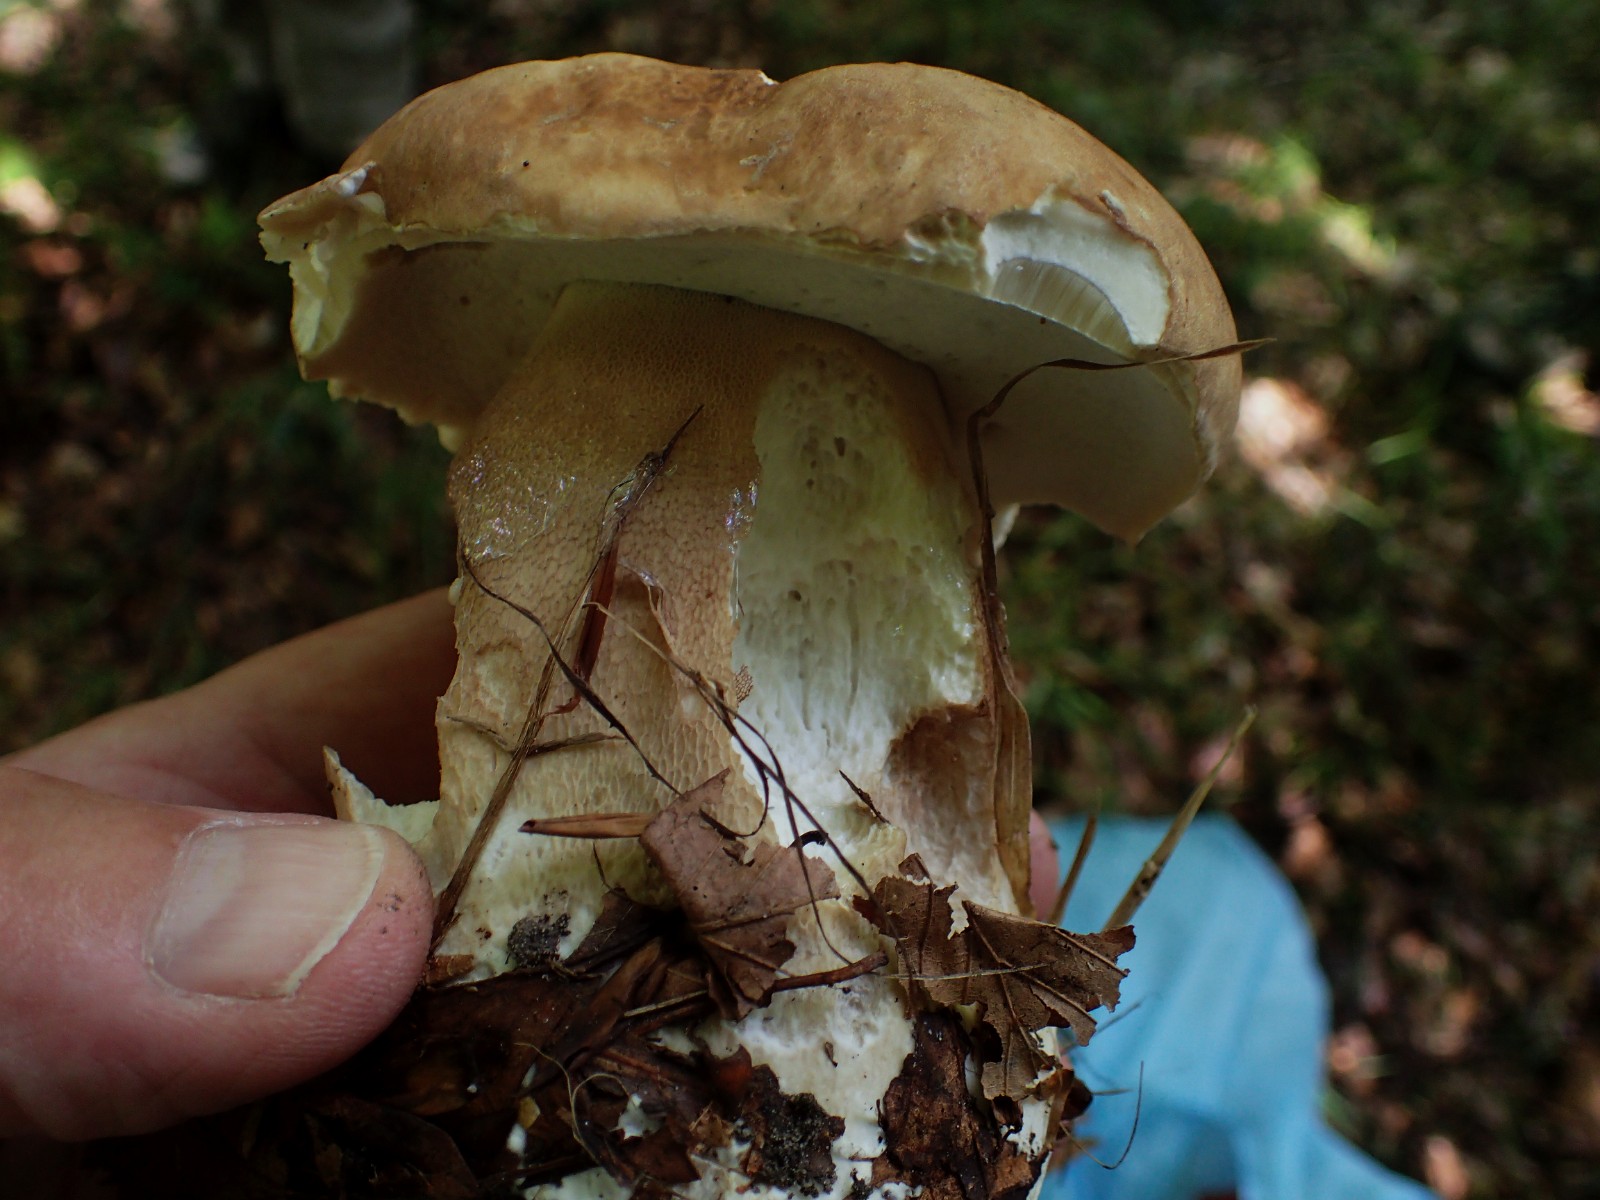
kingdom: Fungi
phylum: Basidiomycota
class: Agaricomycetes
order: Boletales
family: Boletaceae
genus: Boletus
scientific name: Boletus reticulatus
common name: sommer-rørhat
